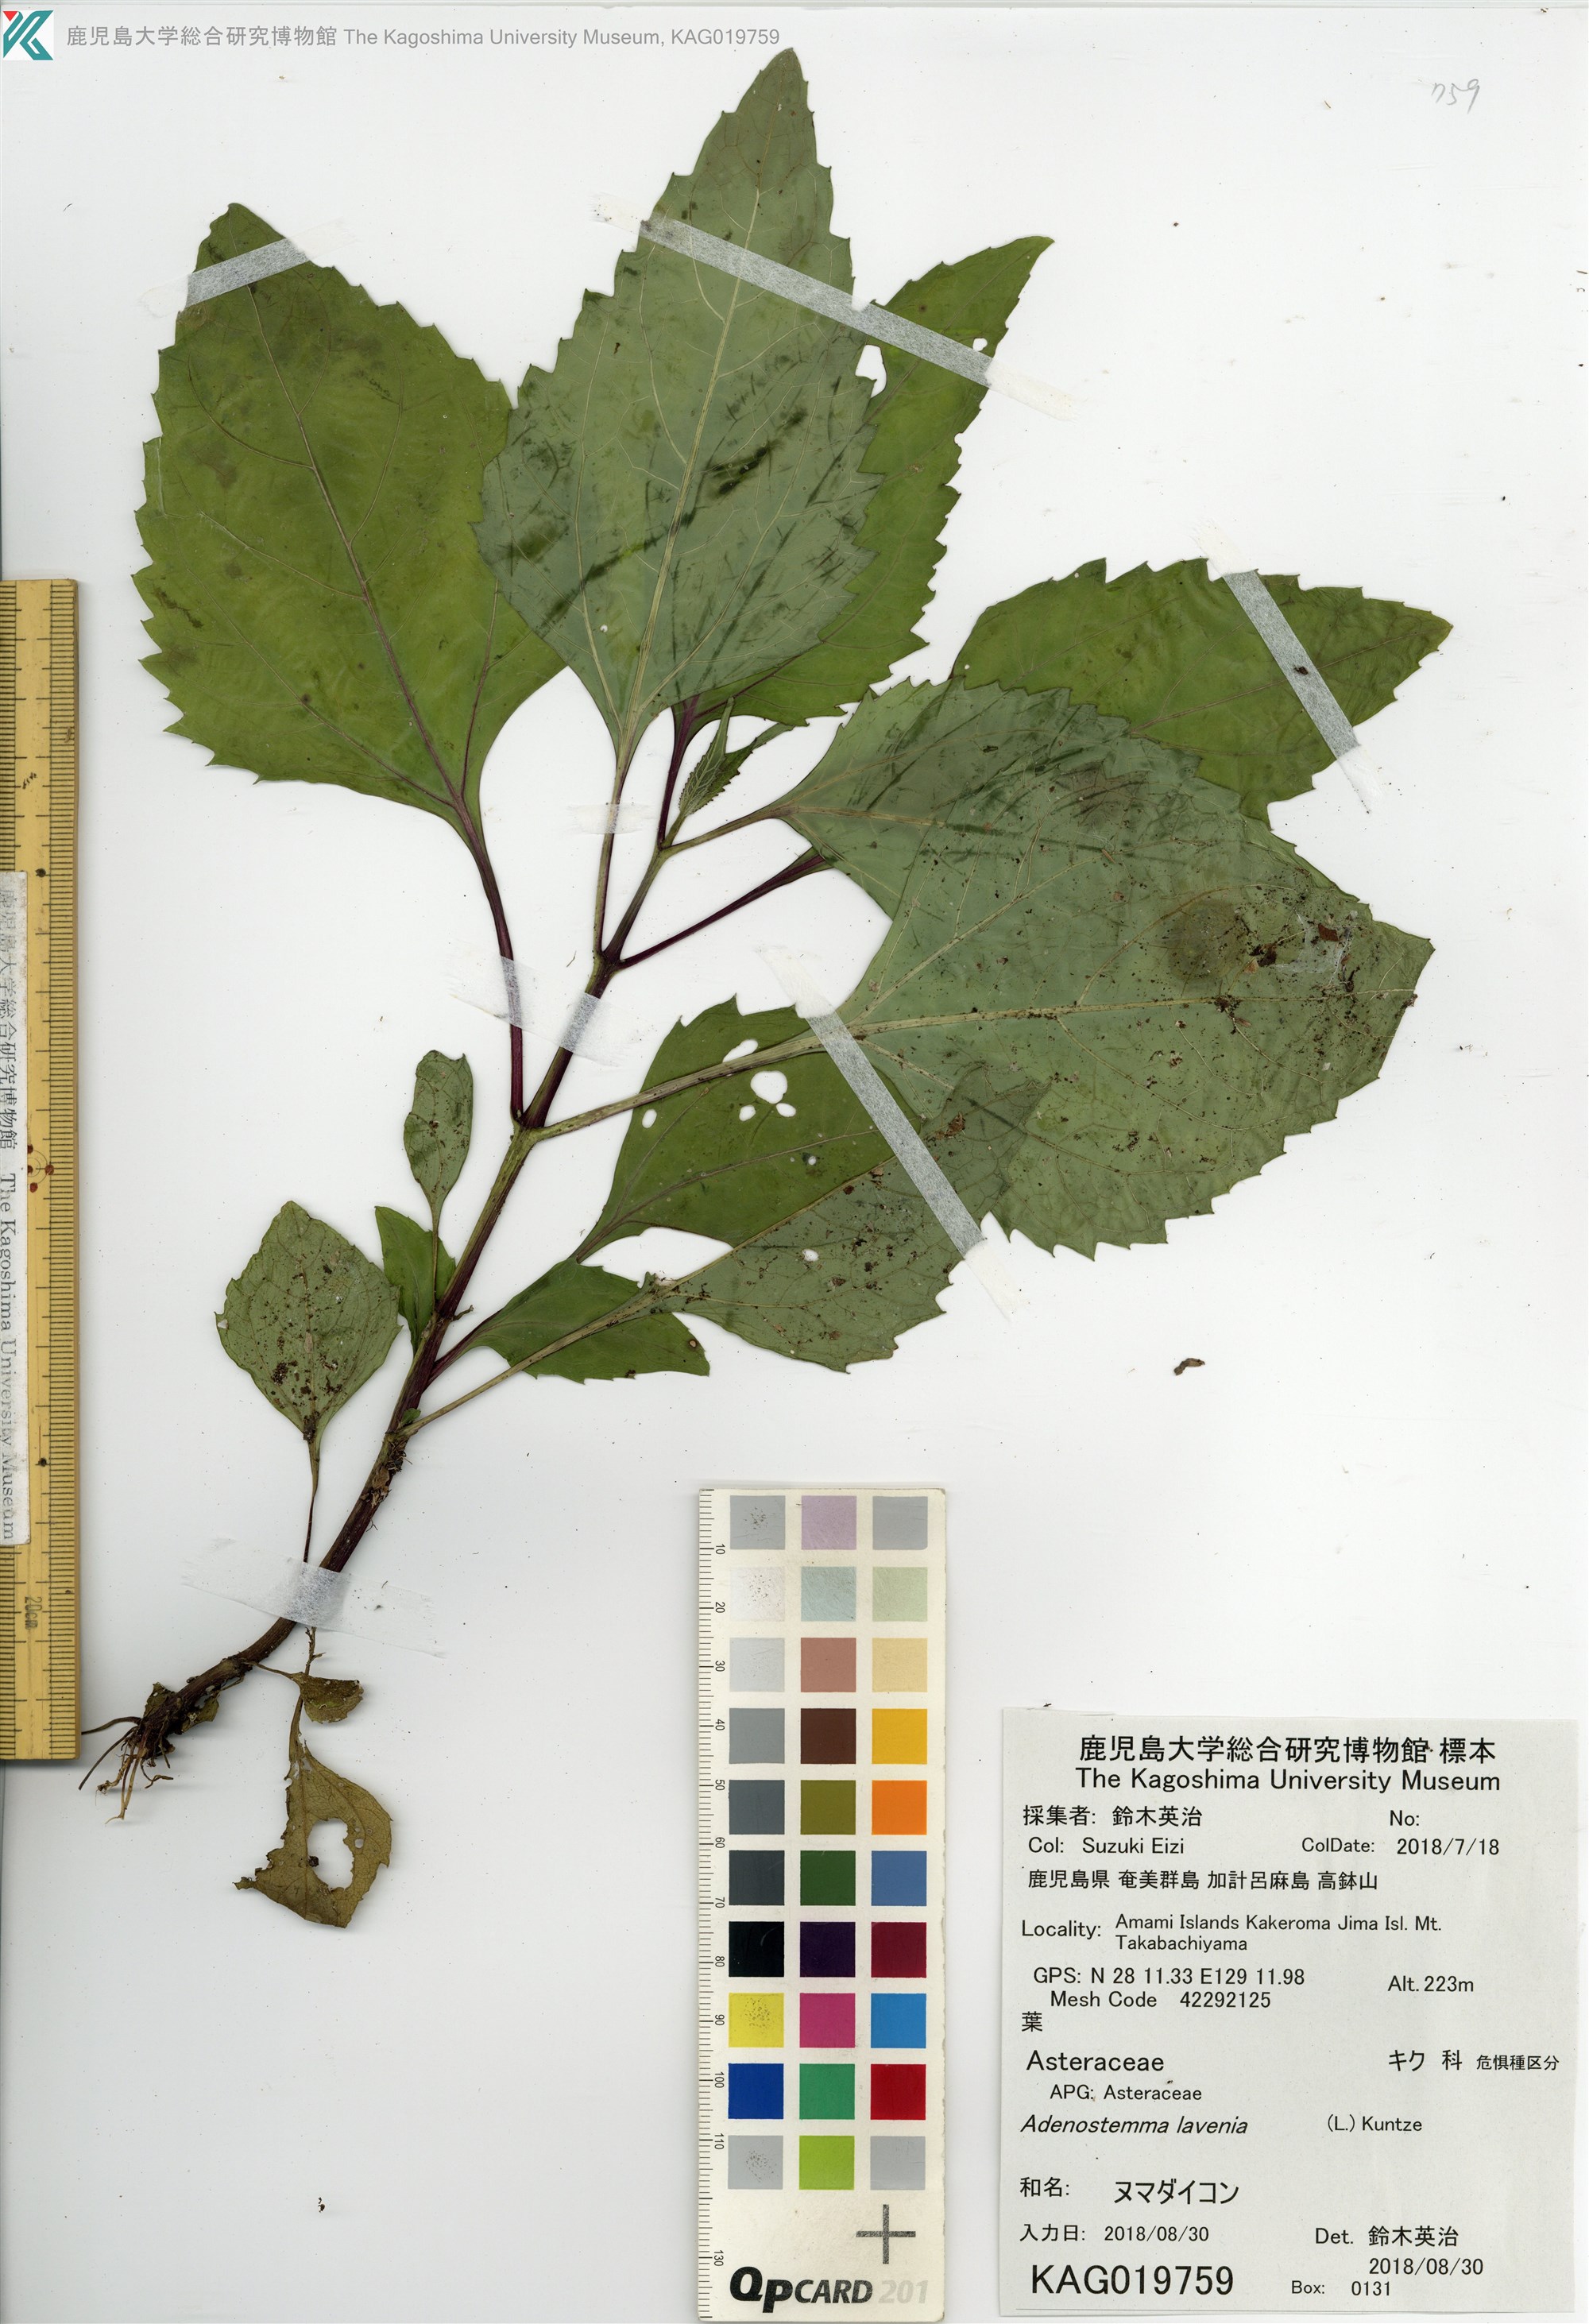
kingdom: Plantae
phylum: Tracheophyta
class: Magnoliopsida
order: Asterales
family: Asteraceae
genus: Adenostemma
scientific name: Adenostemma lavenia
